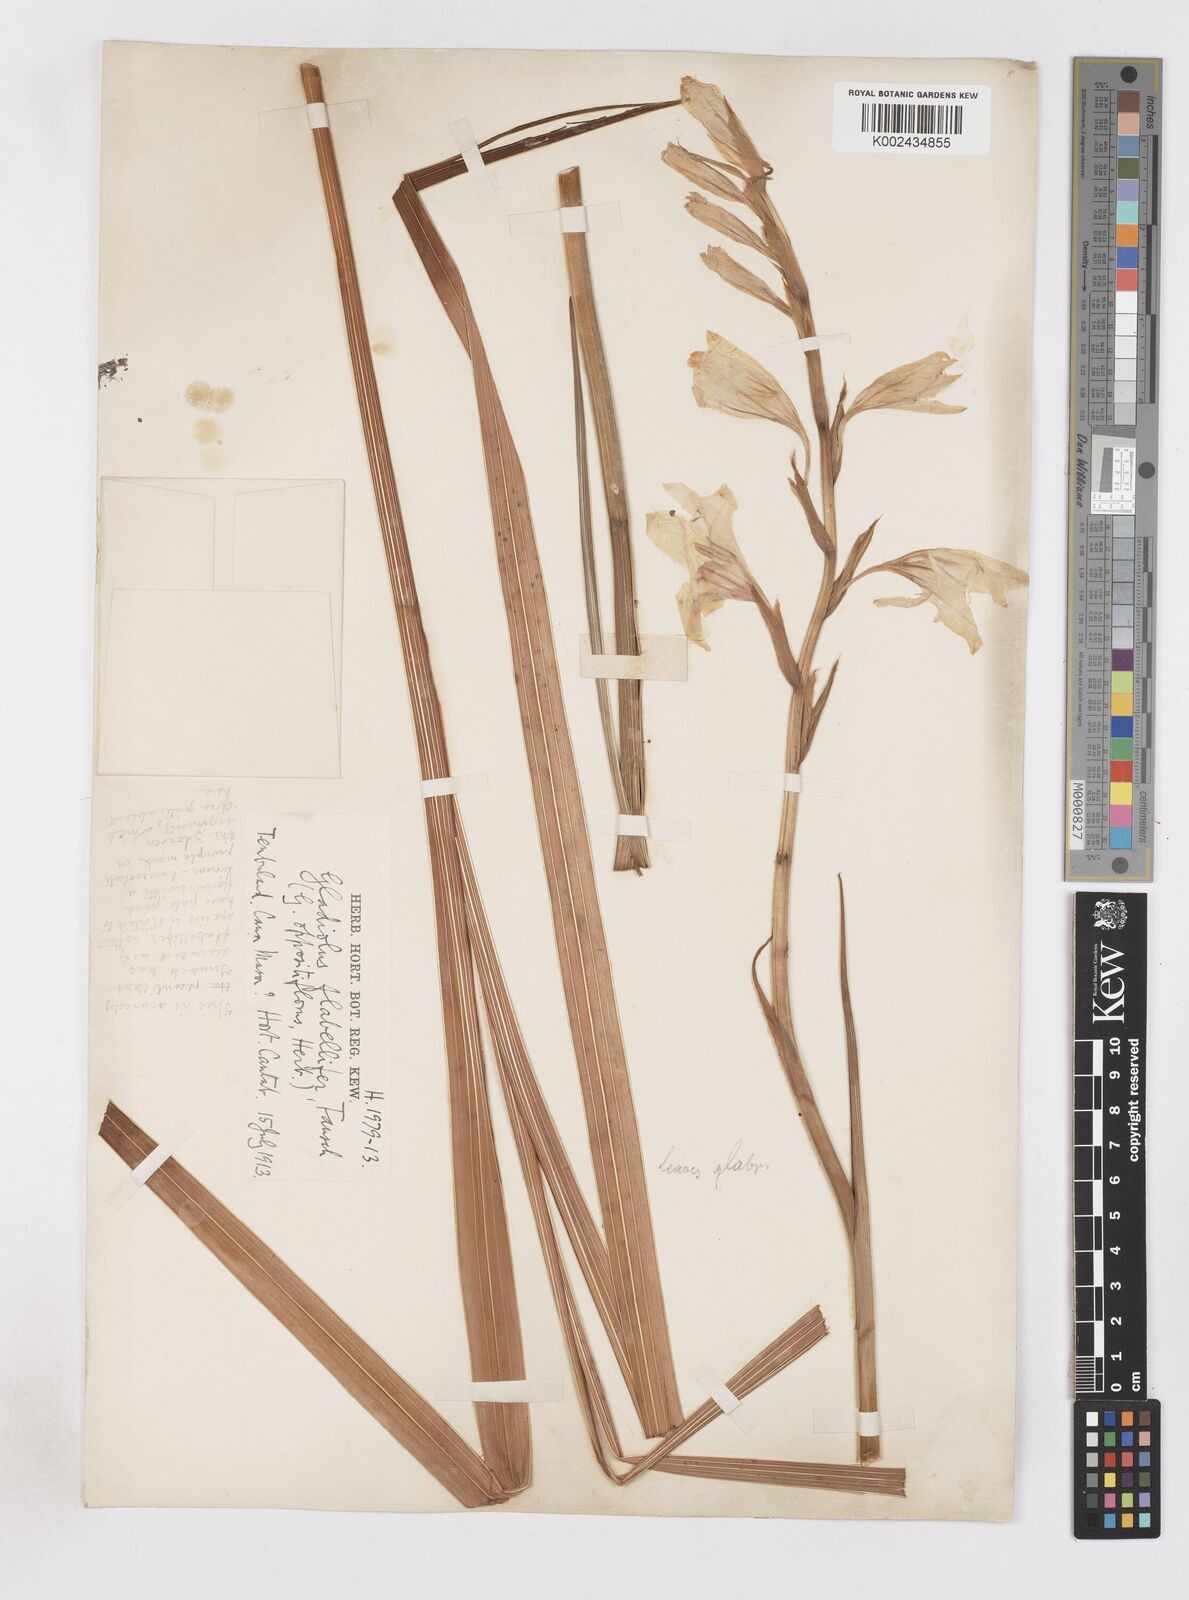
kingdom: Plantae
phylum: Tracheophyta
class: Liliopsida
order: Asparagales
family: Iridaceae
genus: Gladiolus
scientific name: Gladiolus oppositiflorus
